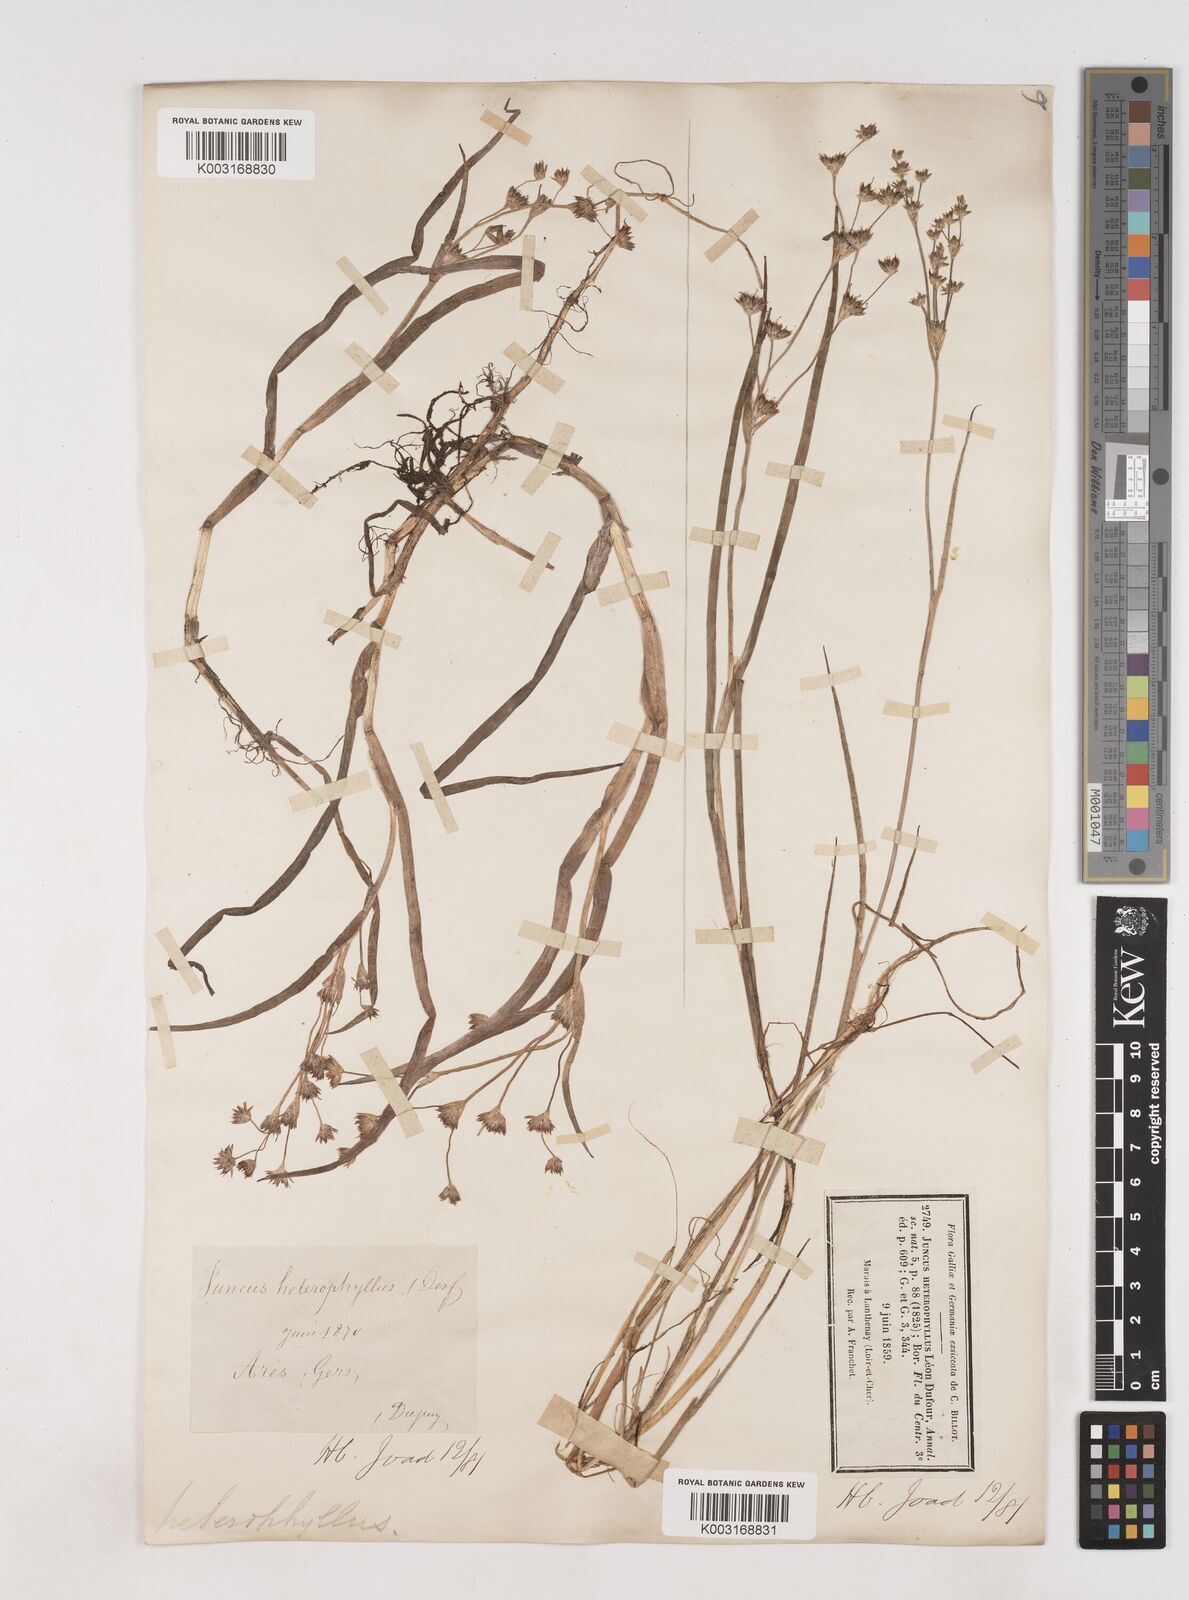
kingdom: Plantae
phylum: Tracheophyta
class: Liliopsida
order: Poales
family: Juncaceae
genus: Juncus
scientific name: Juncus heterophyllus
